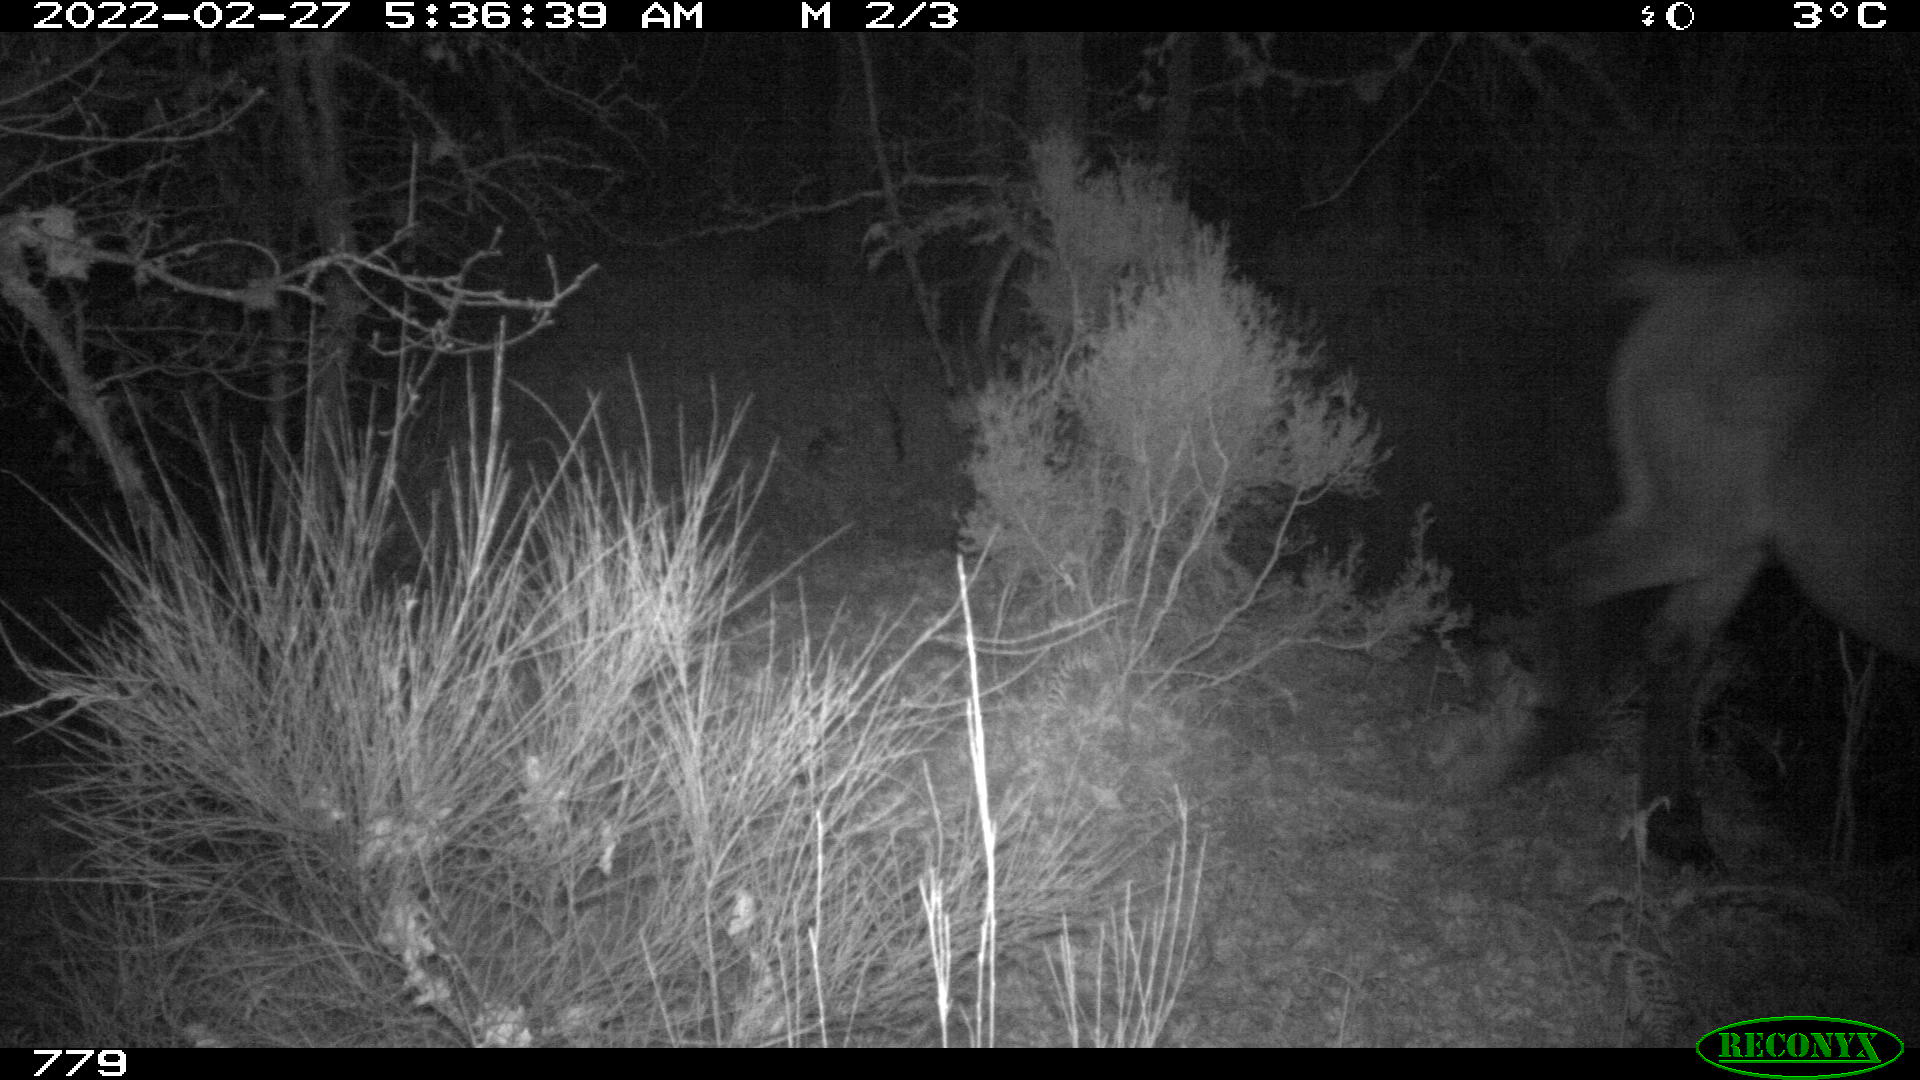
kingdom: Animalia
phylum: Chordata
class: Mammalia
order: Perissodactyla
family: Equidae
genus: Equus
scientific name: Equus caballus
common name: Horse
